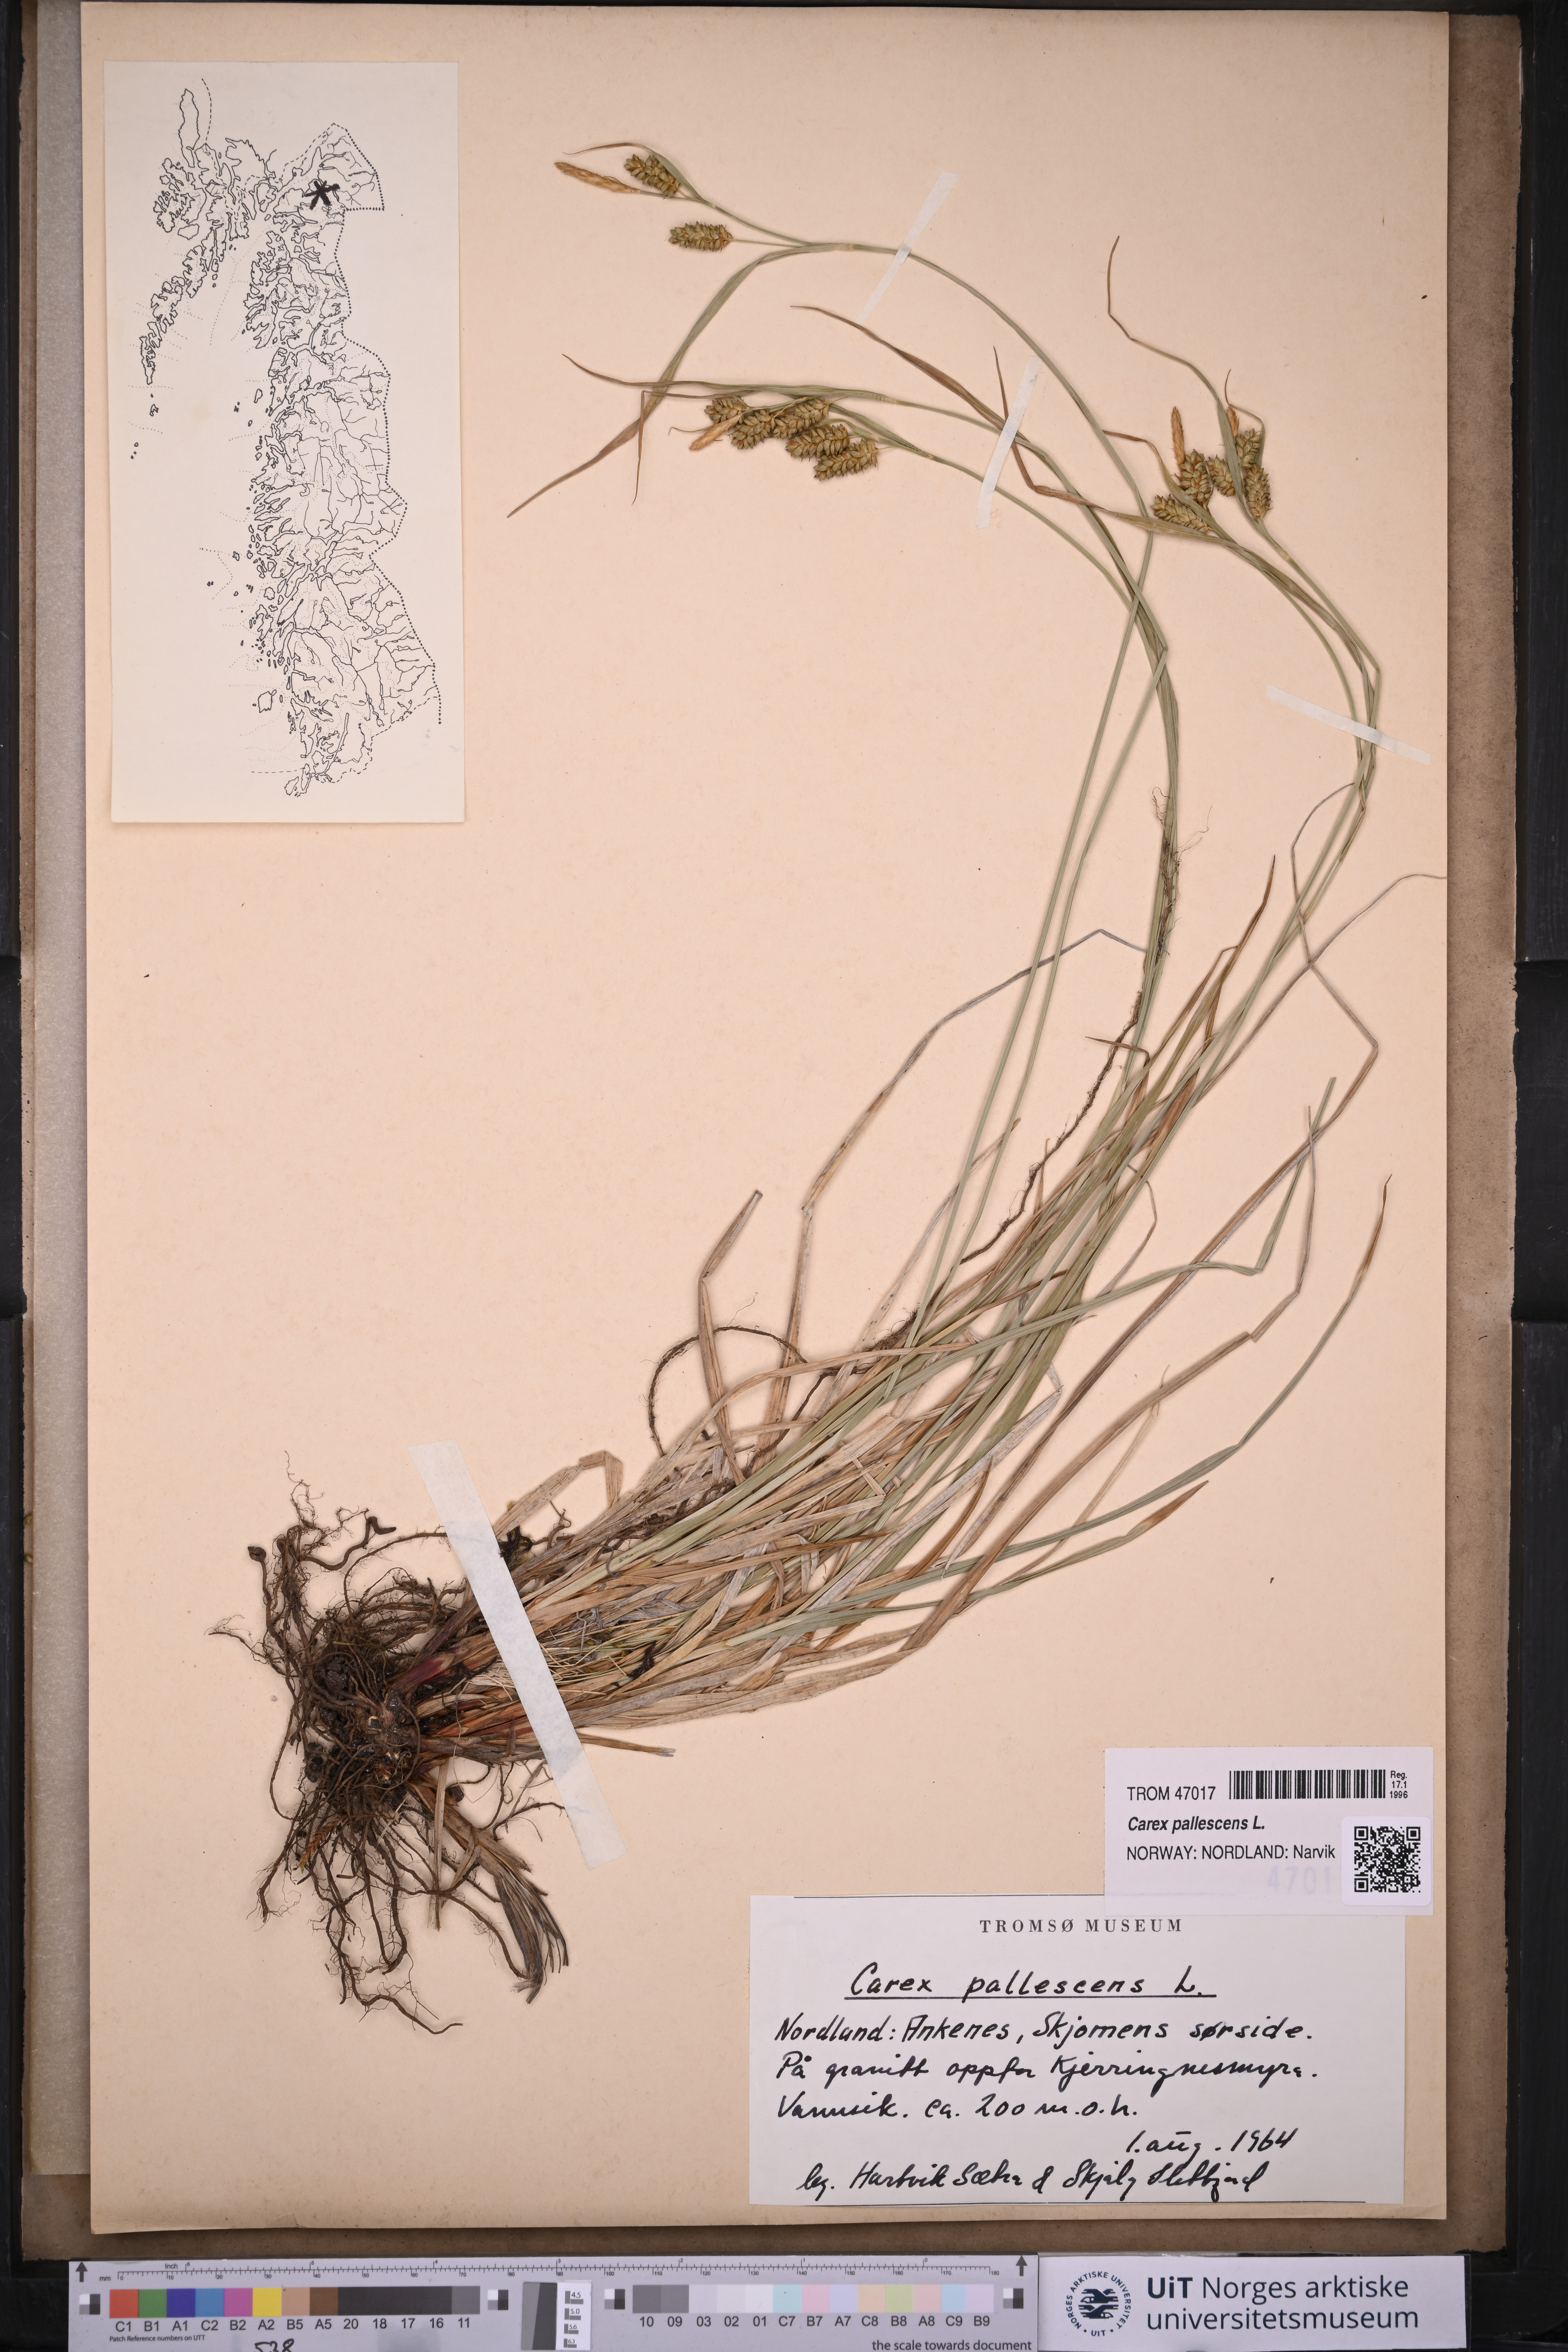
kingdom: Plantae
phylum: Tracheophyta
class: Liliopsida
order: Poales
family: Cyperaceae
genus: Carex
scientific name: Carex pallescens
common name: Pale sedge
